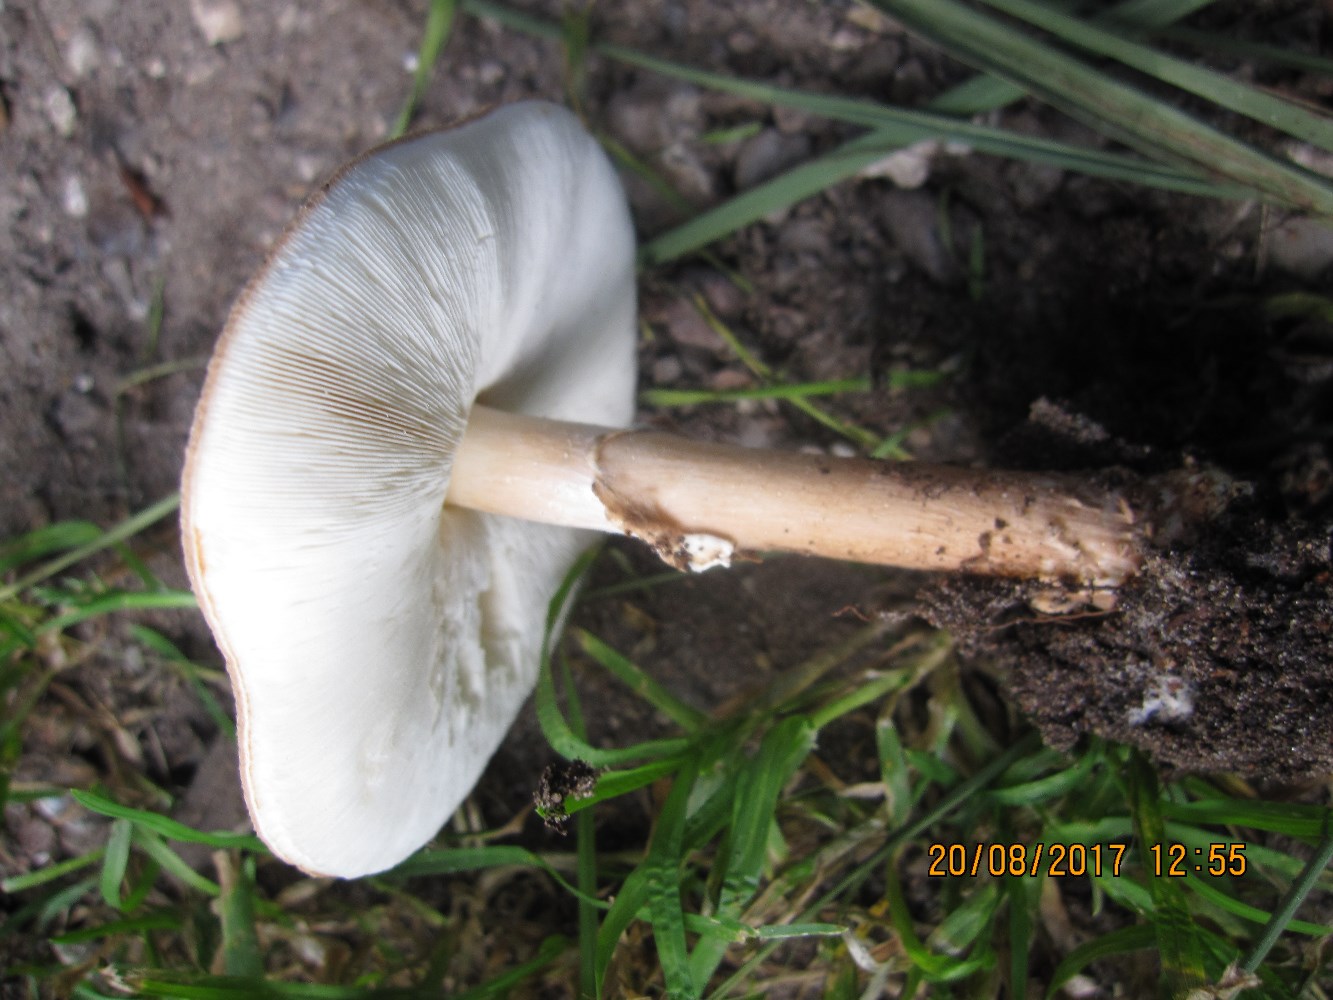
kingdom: Fungi
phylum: Basidiomycota
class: Agaricomycetes
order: Agaricales
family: Agaricaceae
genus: Echinoderma
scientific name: Echinoderma asperum
